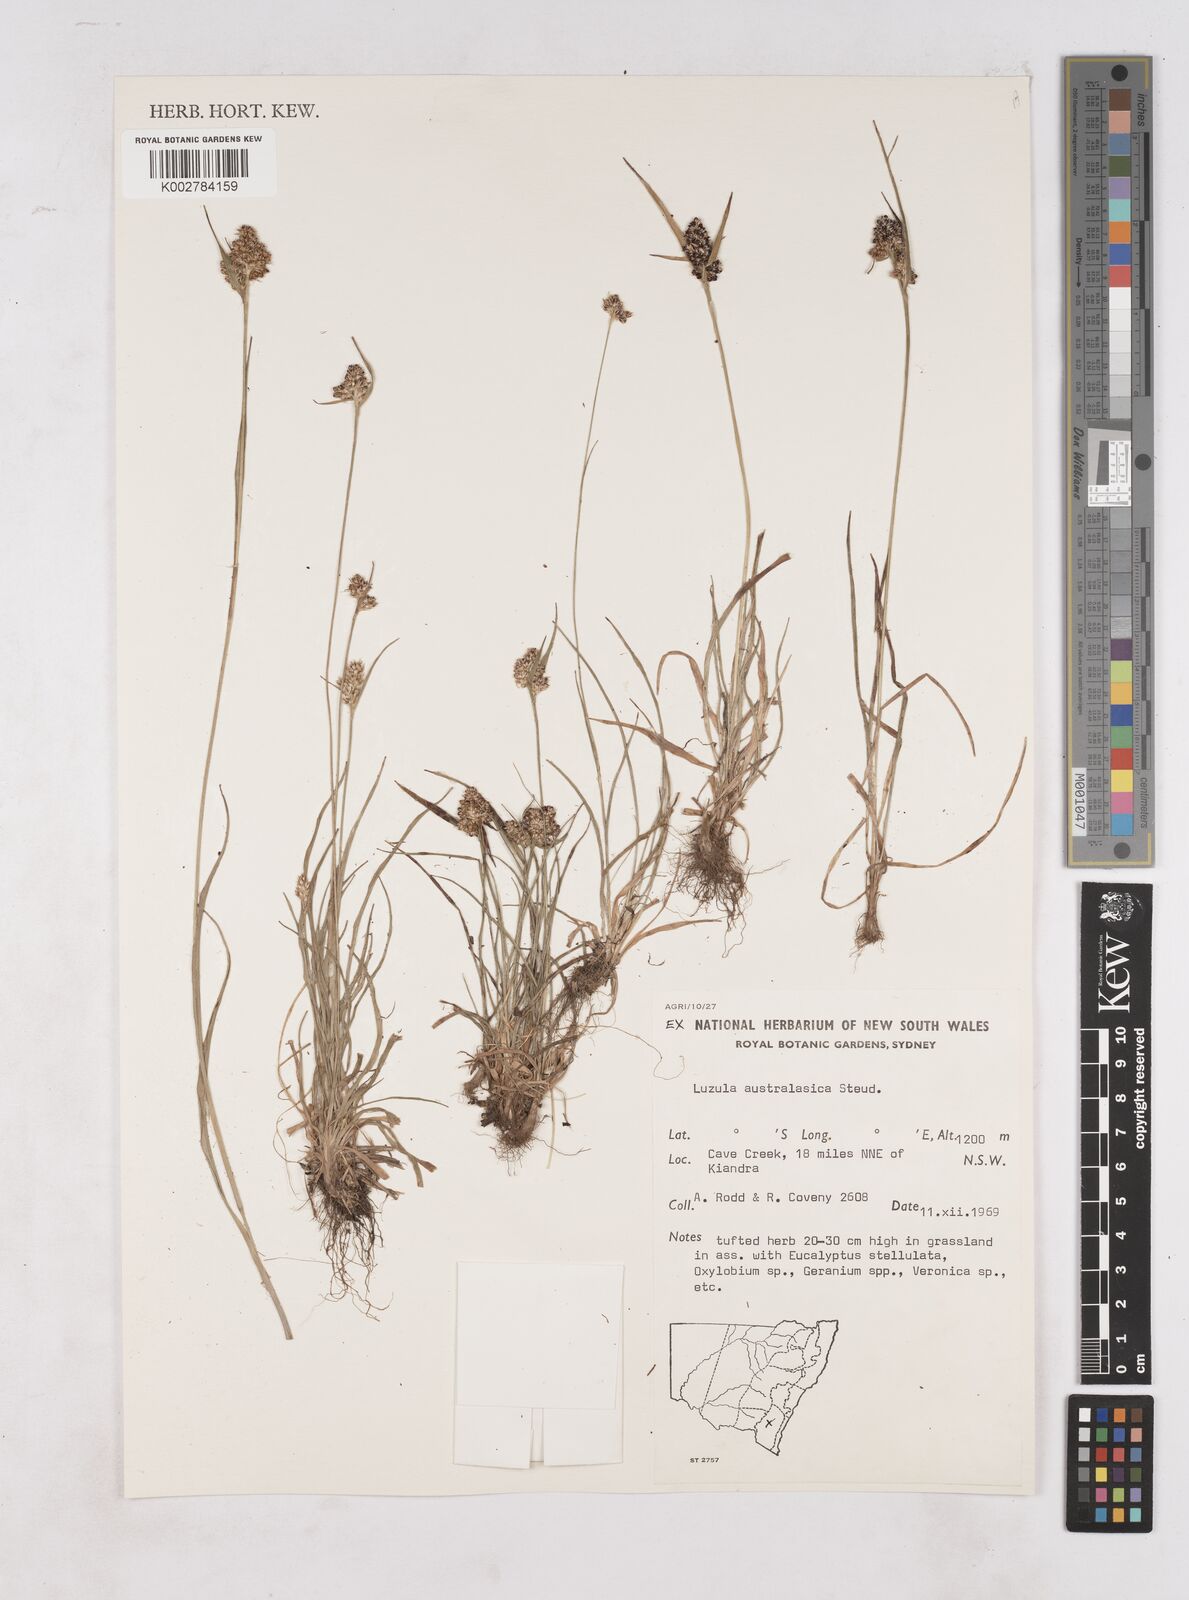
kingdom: Plantae
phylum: Tracheophyta
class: Liliopsida
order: Poales
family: Juncaceae
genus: Luzula
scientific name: Luzula australasica
